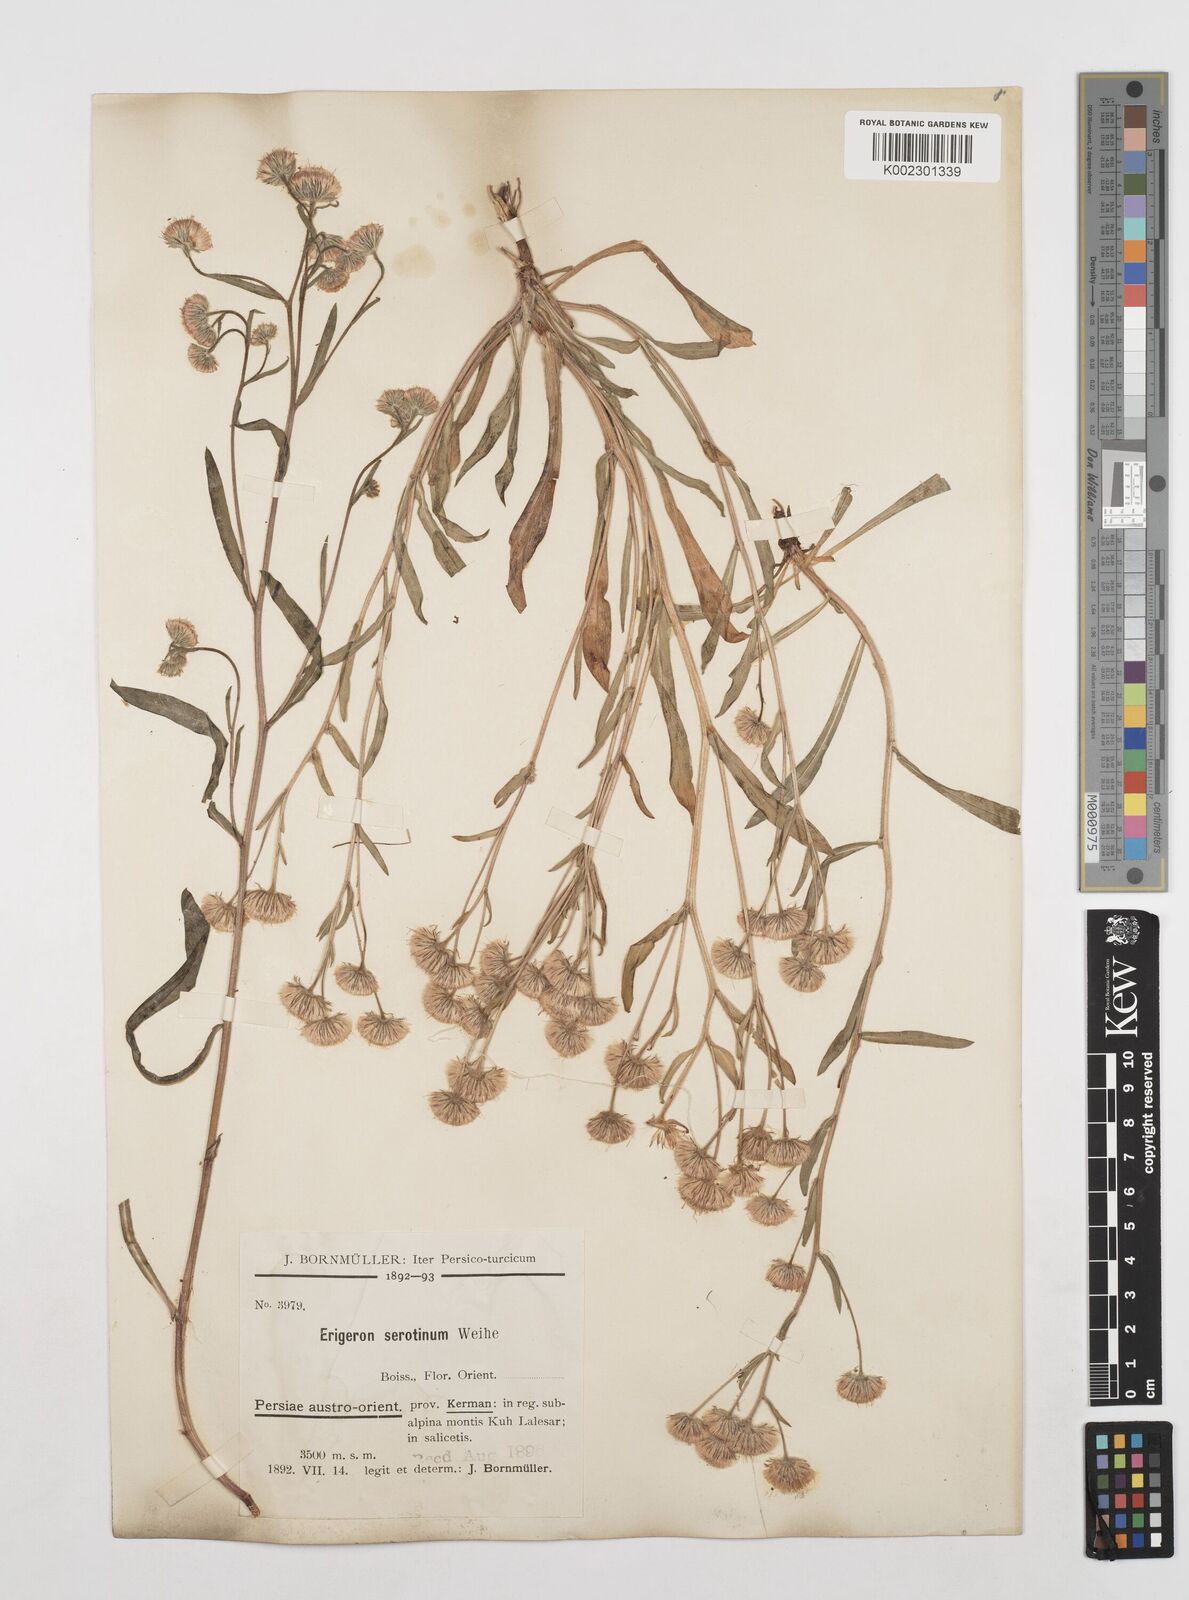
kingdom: Plantae
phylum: Tracheophyta
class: Magnoliopsida
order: Asterales
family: Asteraceae
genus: Erigeron
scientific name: Erigeron muralis
